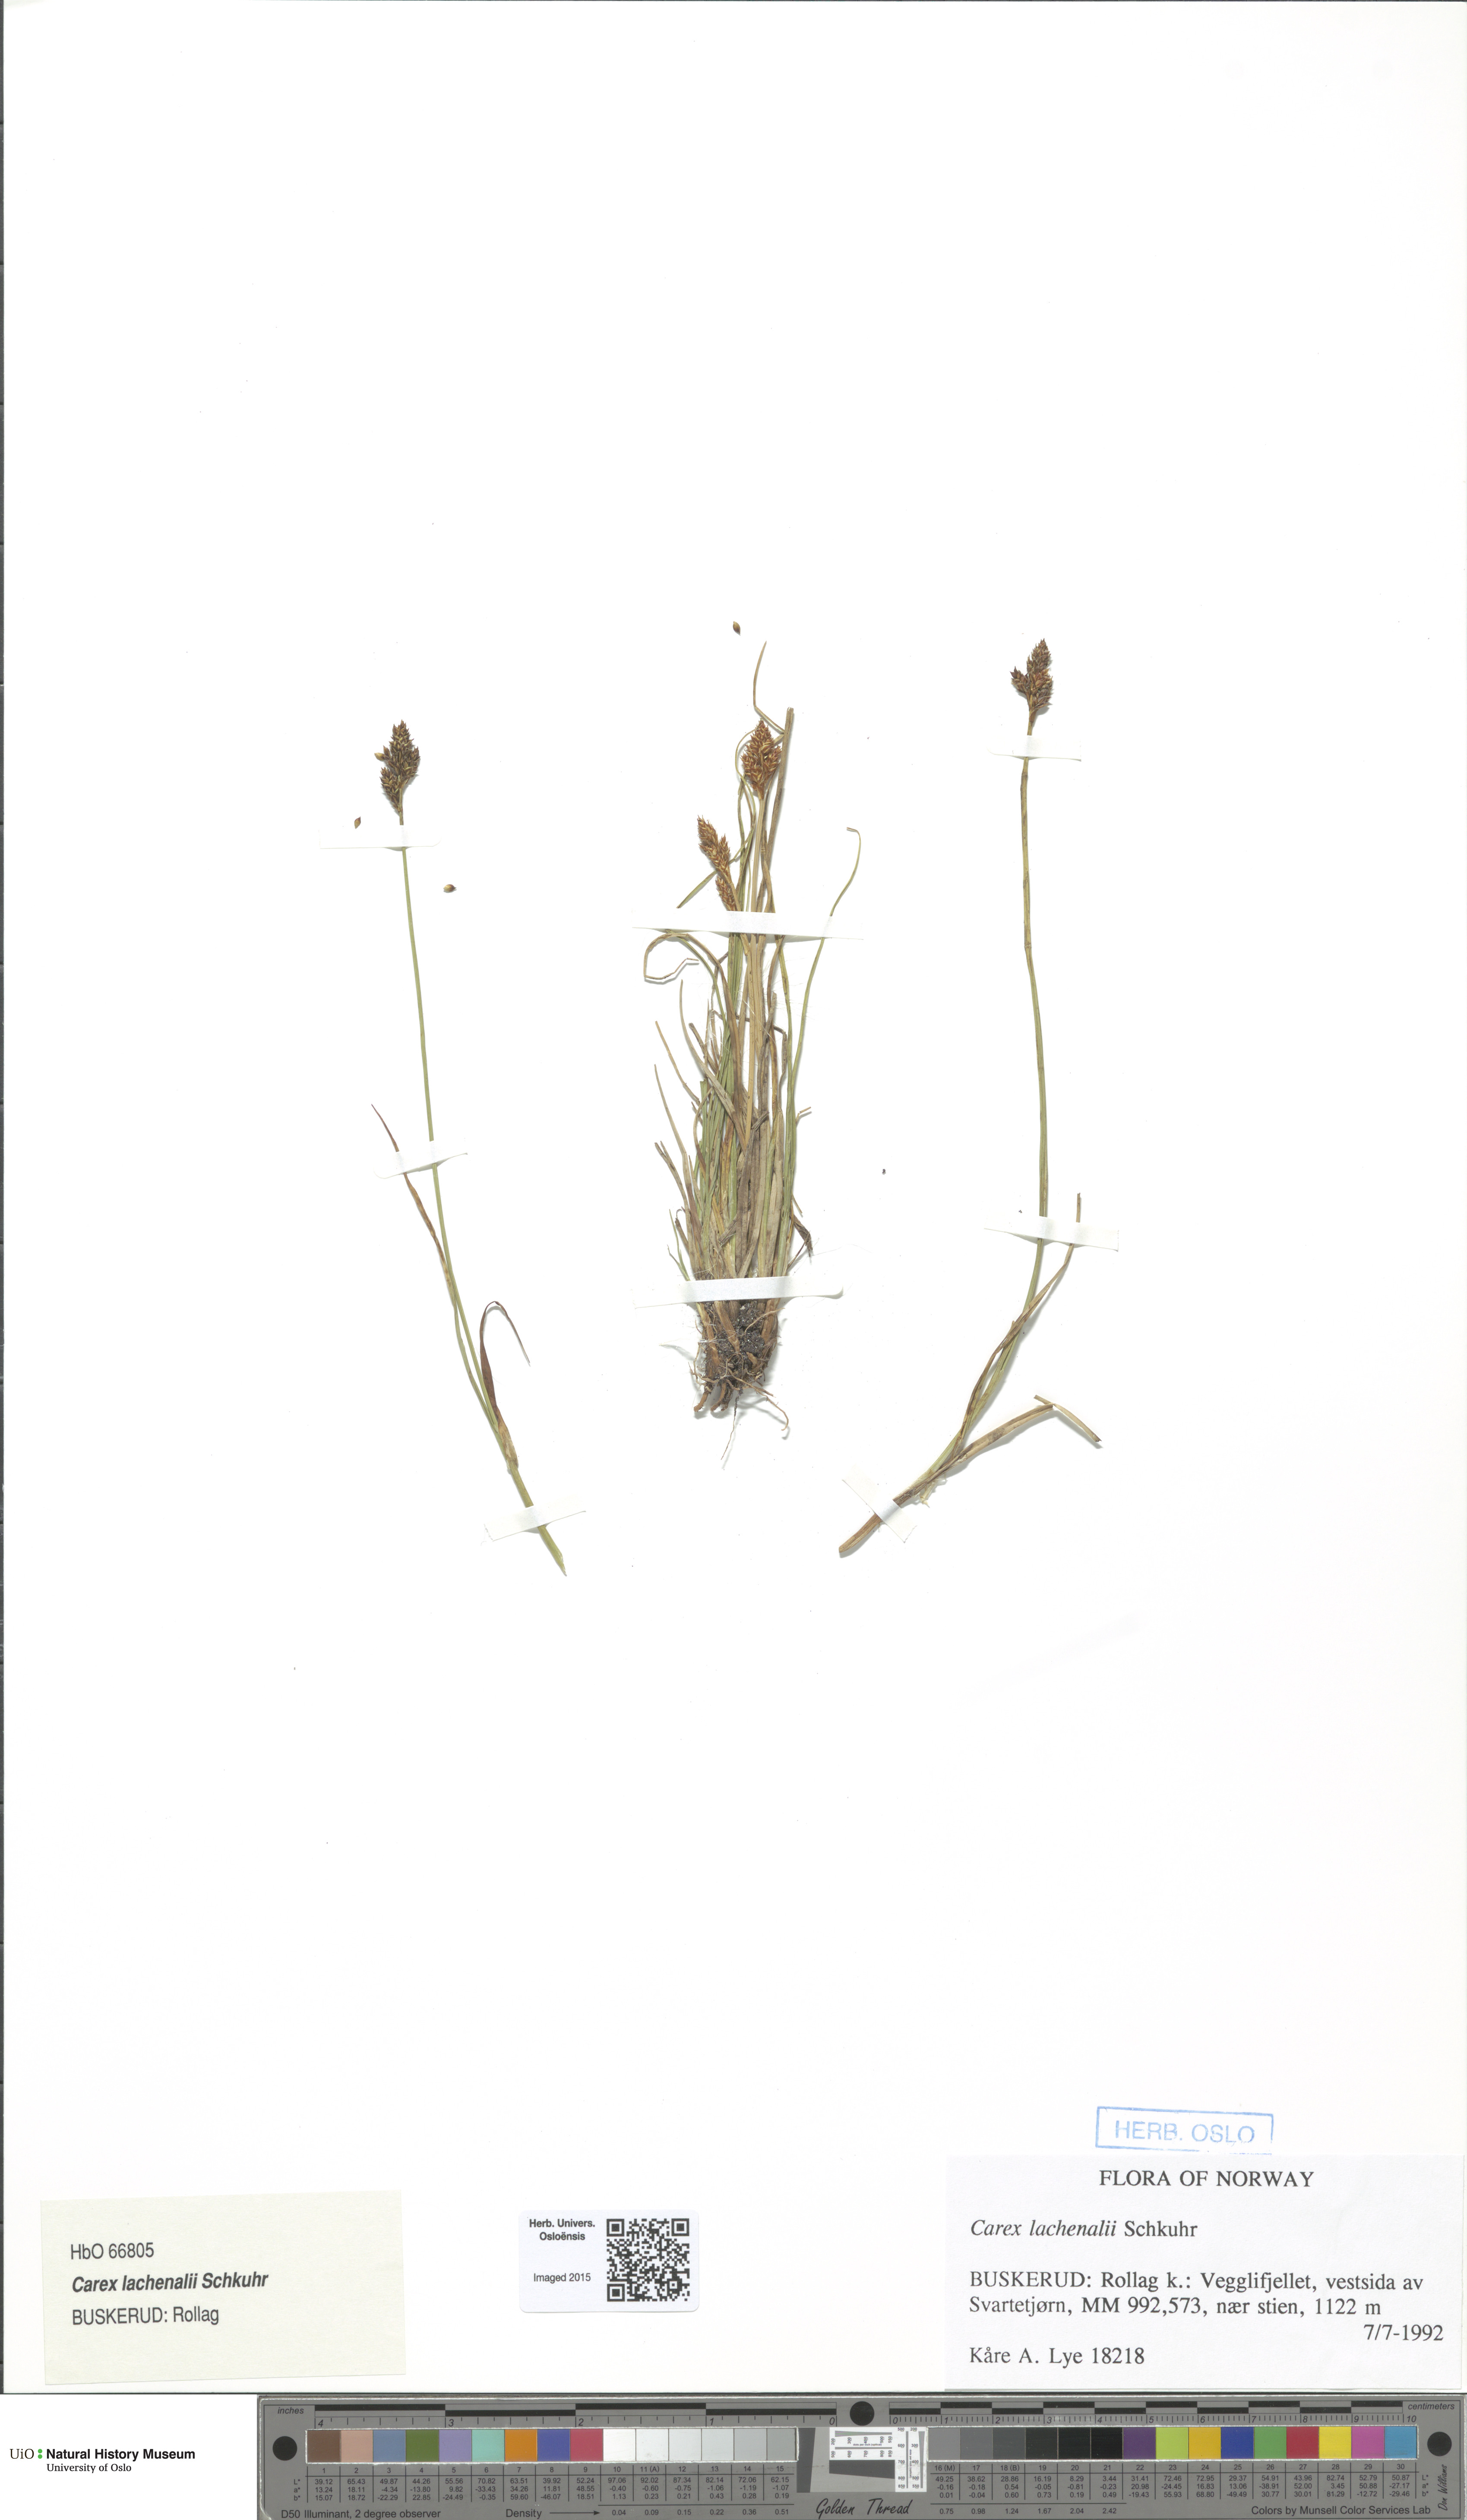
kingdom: Plantae
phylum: Tracheophyta
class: Liliopsida
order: Poales
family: Cyperaceae
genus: Carex
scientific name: Carex lachenalii
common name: Hare's-foot sedge
